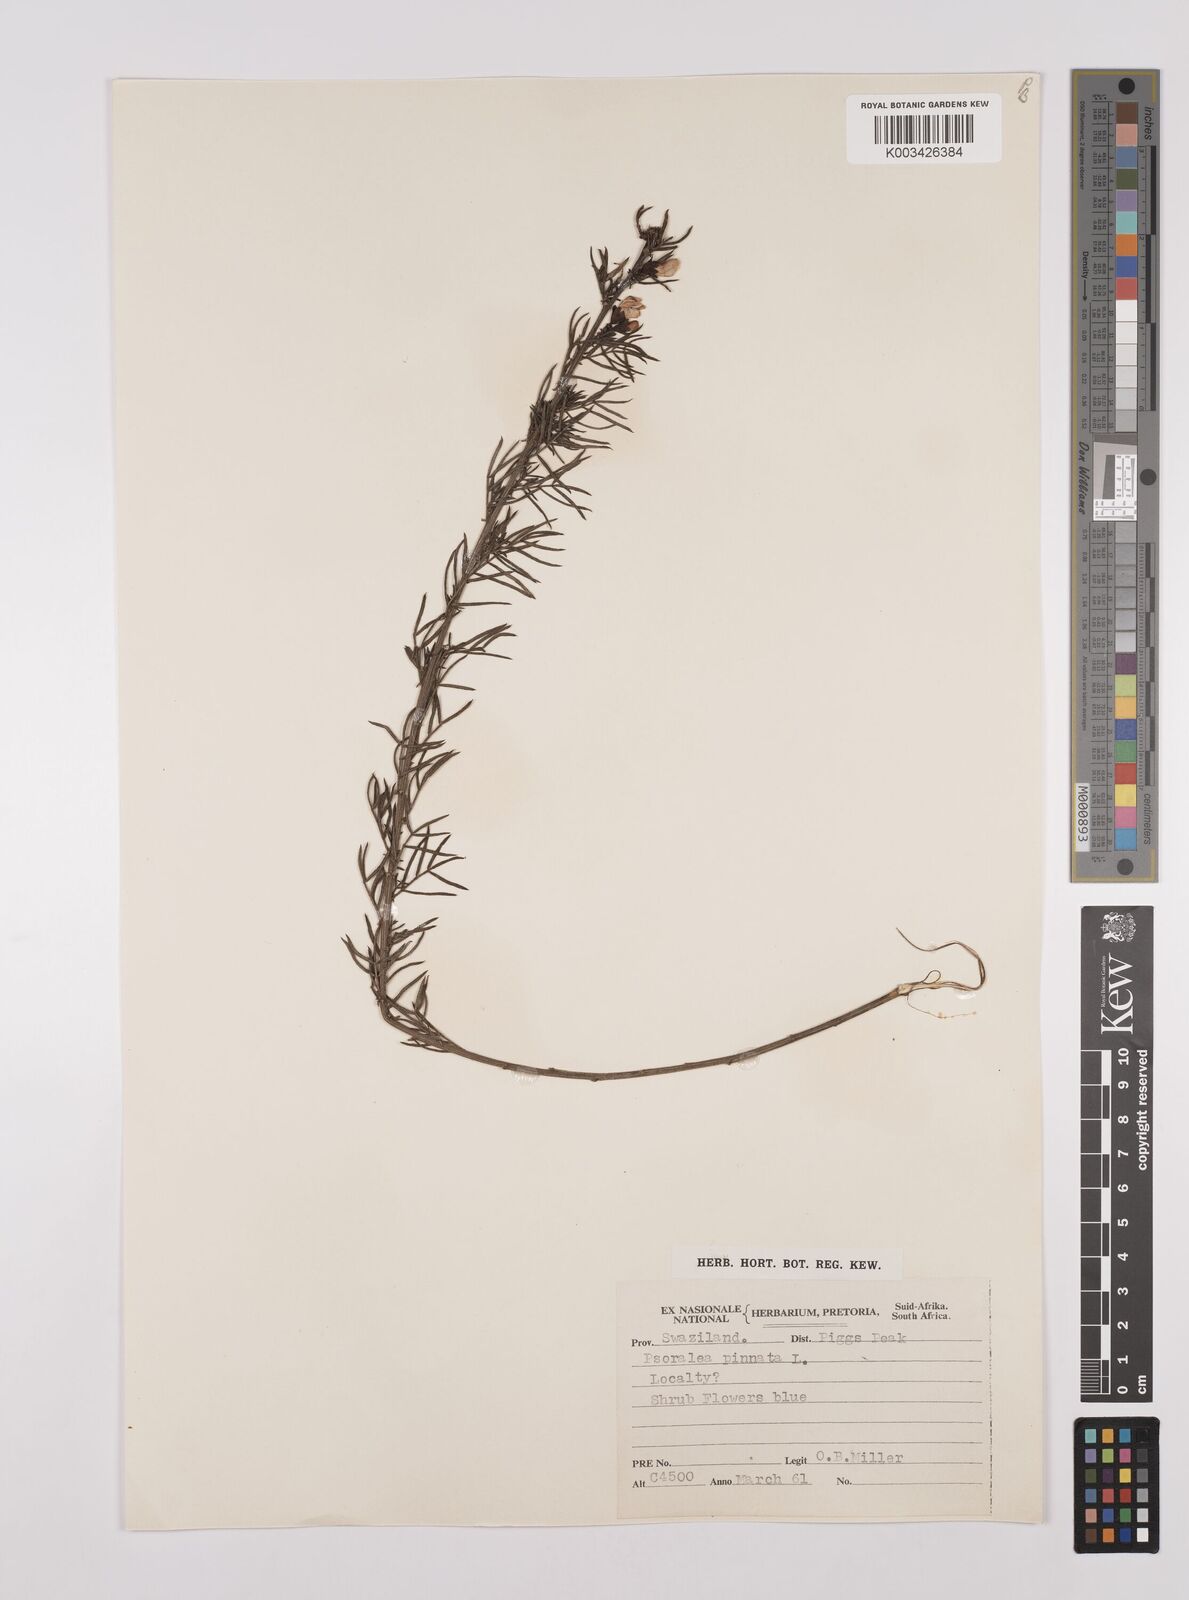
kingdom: Plantae
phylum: Tracheophyta
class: Magnoliopsida
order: Fabales
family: Fabaceae
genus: Psoralea
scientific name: Psoralea rhizotoma
